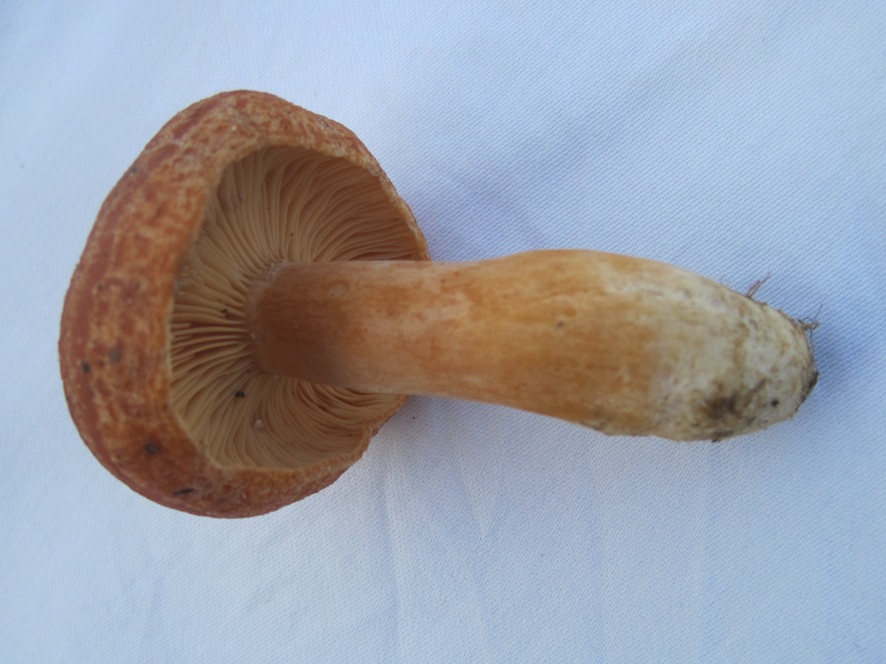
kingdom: Fungi
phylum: Basidiomycota
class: Agaricomycetes
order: Russulales
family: Russulaceae
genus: Lactarius
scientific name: Lactarius porninsis
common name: lærke-mælkehat
